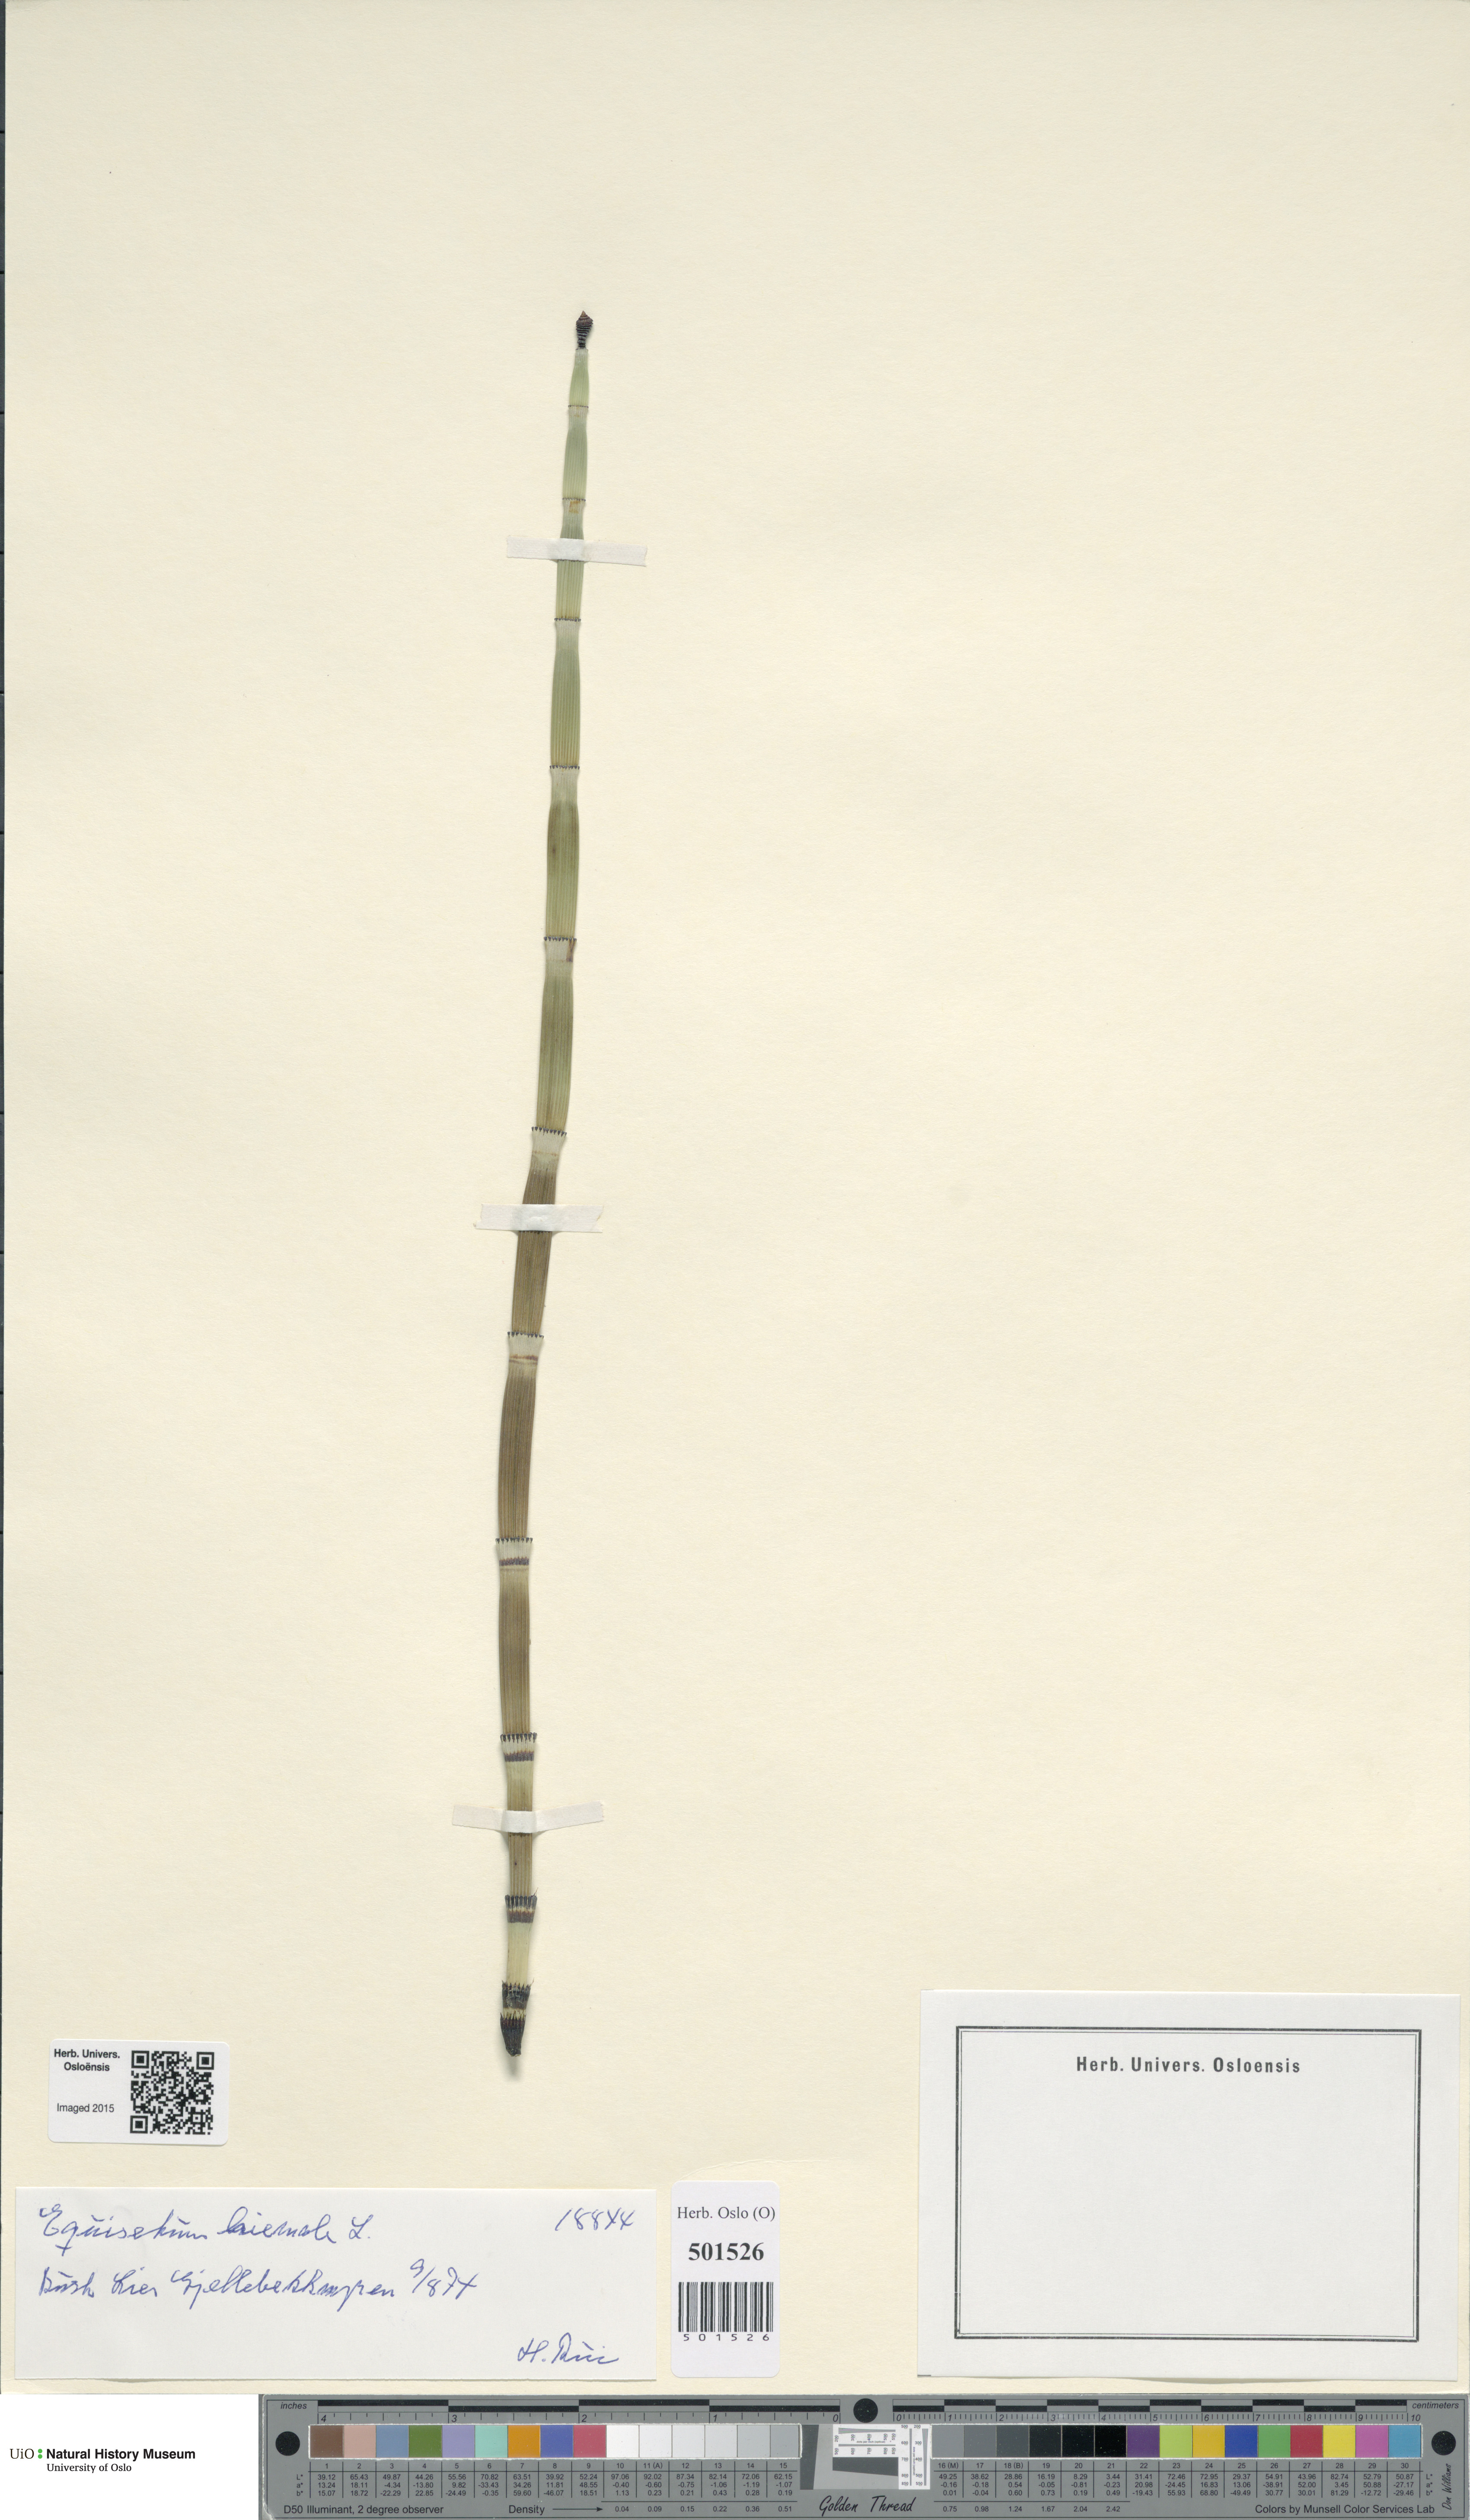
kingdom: Plantae
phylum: Tracheophyta
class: Polypodiopsida
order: Equisetales
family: Equisetaceae
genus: Equisetum
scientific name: Equisetum hyemale
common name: Rough horsetail
